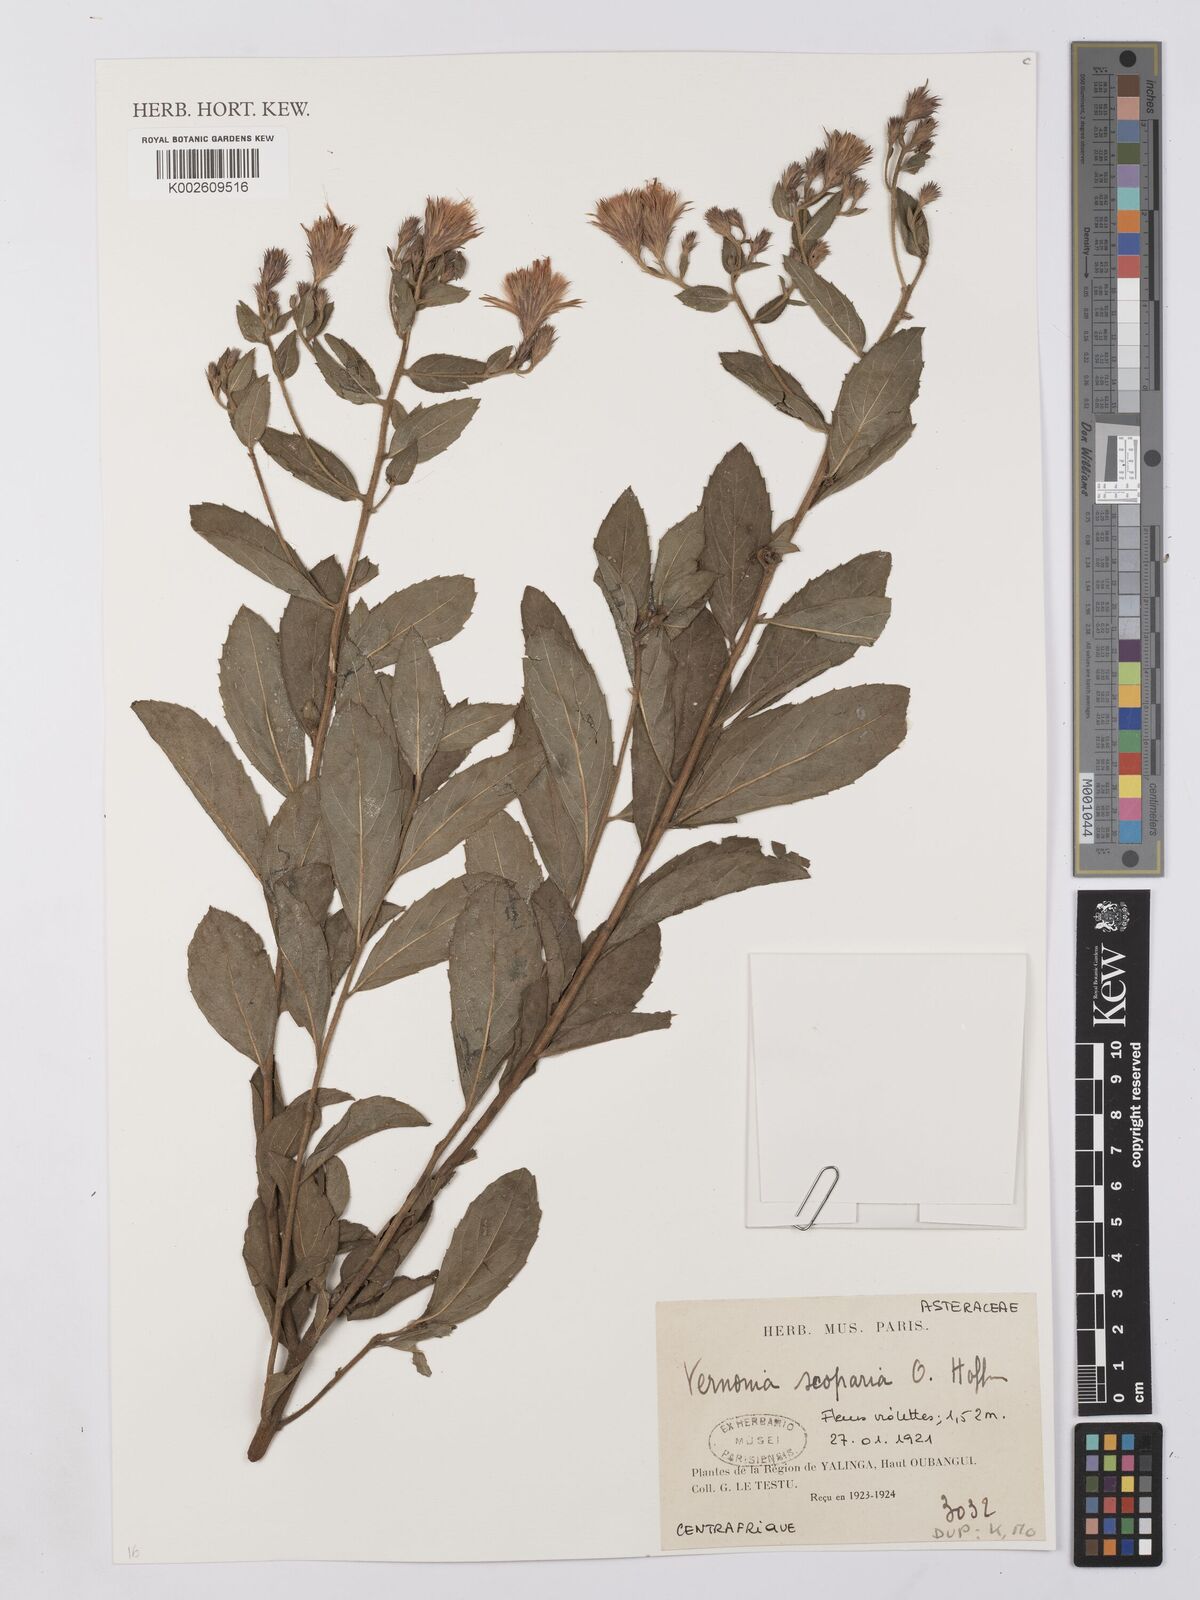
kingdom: Plantae
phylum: Tracheophyta
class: Magnoliopsida
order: Asterales
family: Asteraceae
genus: Vernonia
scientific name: Vernonia
